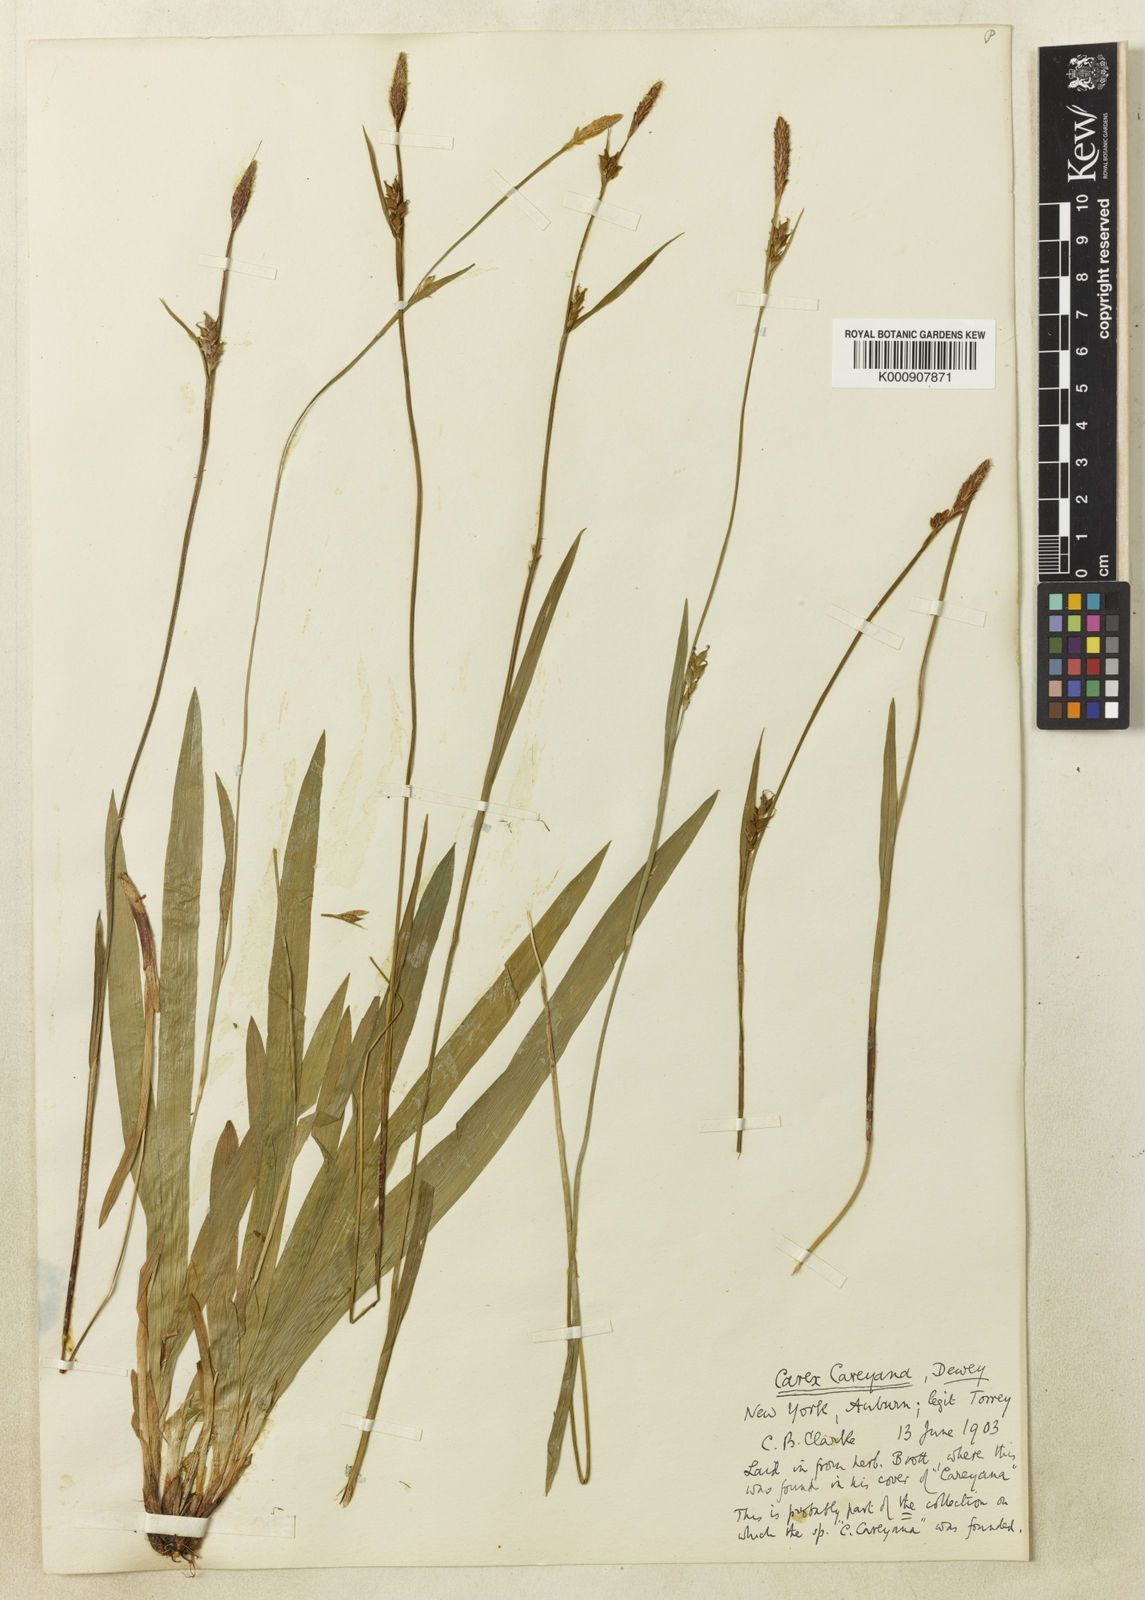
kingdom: Plantae
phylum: Tracheophyta
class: Liliopsida
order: Poales
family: Cyperaceae
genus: Carex
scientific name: Carex careyana
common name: Carey's sedge
